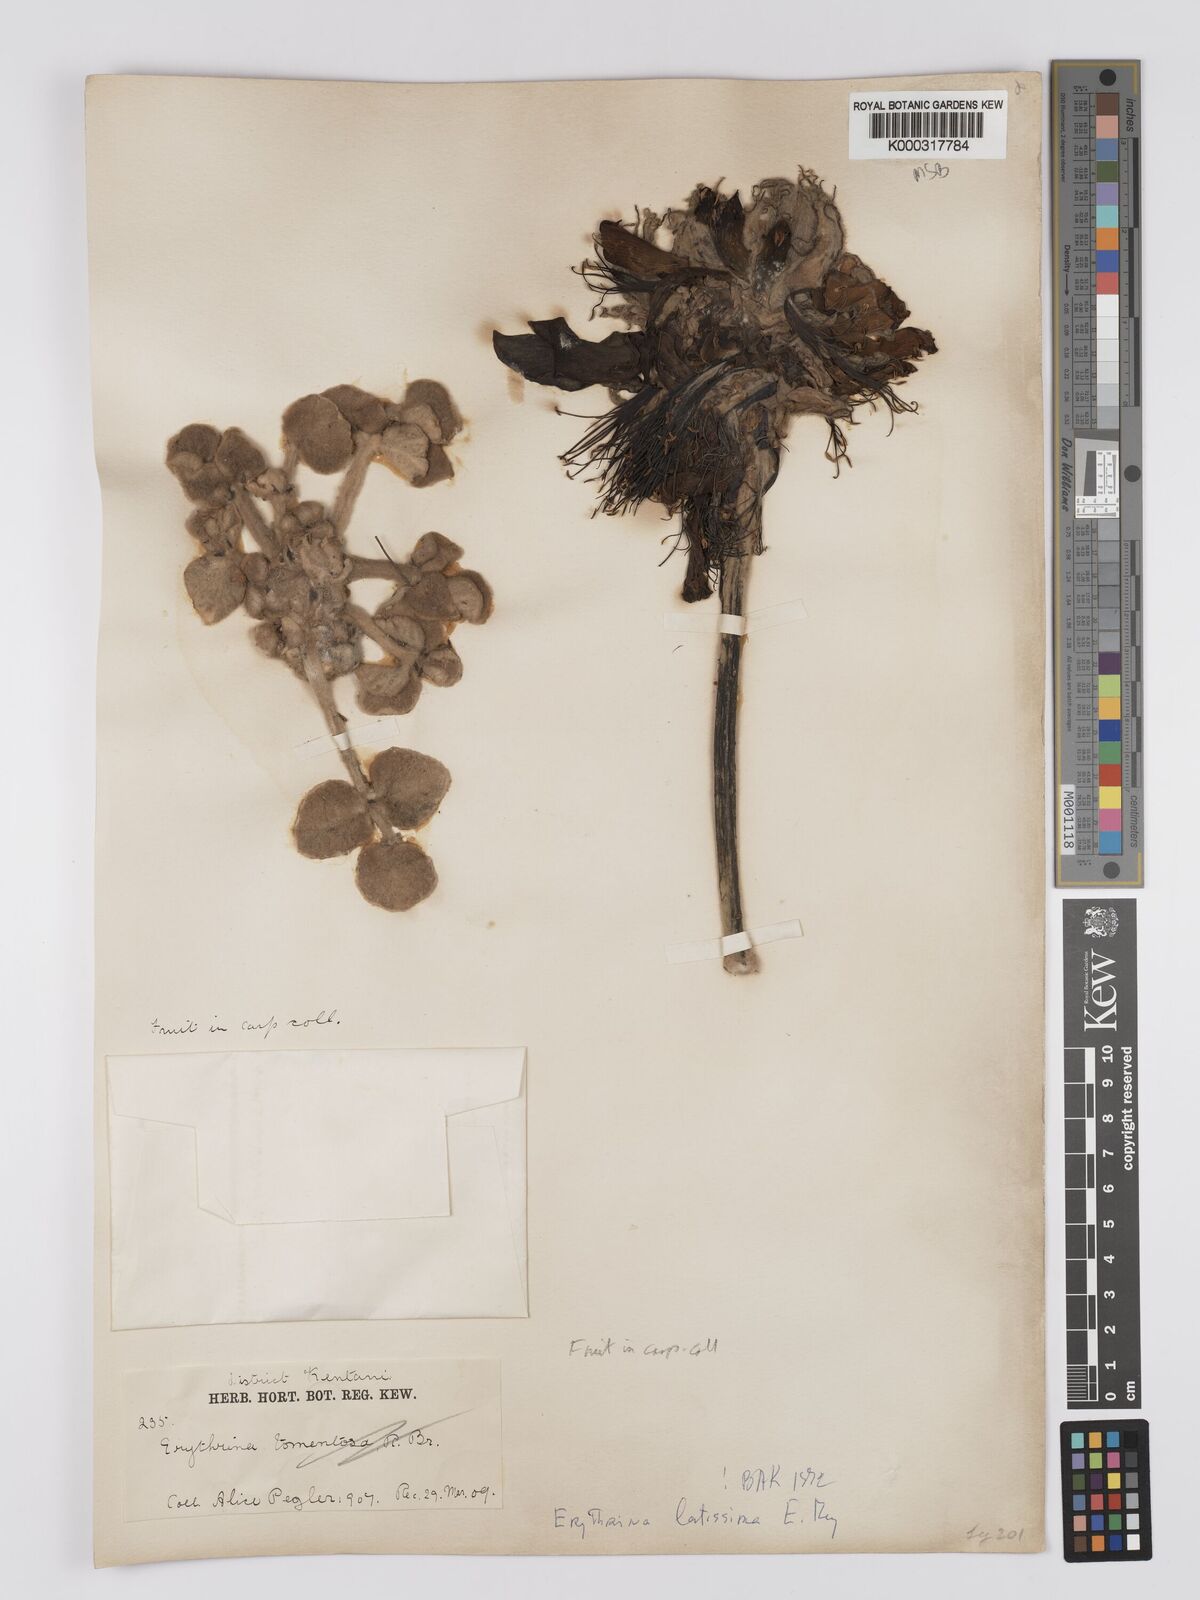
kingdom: Plantae
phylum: Tracheophyta
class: Magnoliopsida
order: Fabales
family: Fabaceae
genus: Erythrina
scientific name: Erythrina latissima
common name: Broad-leaved coral tree
